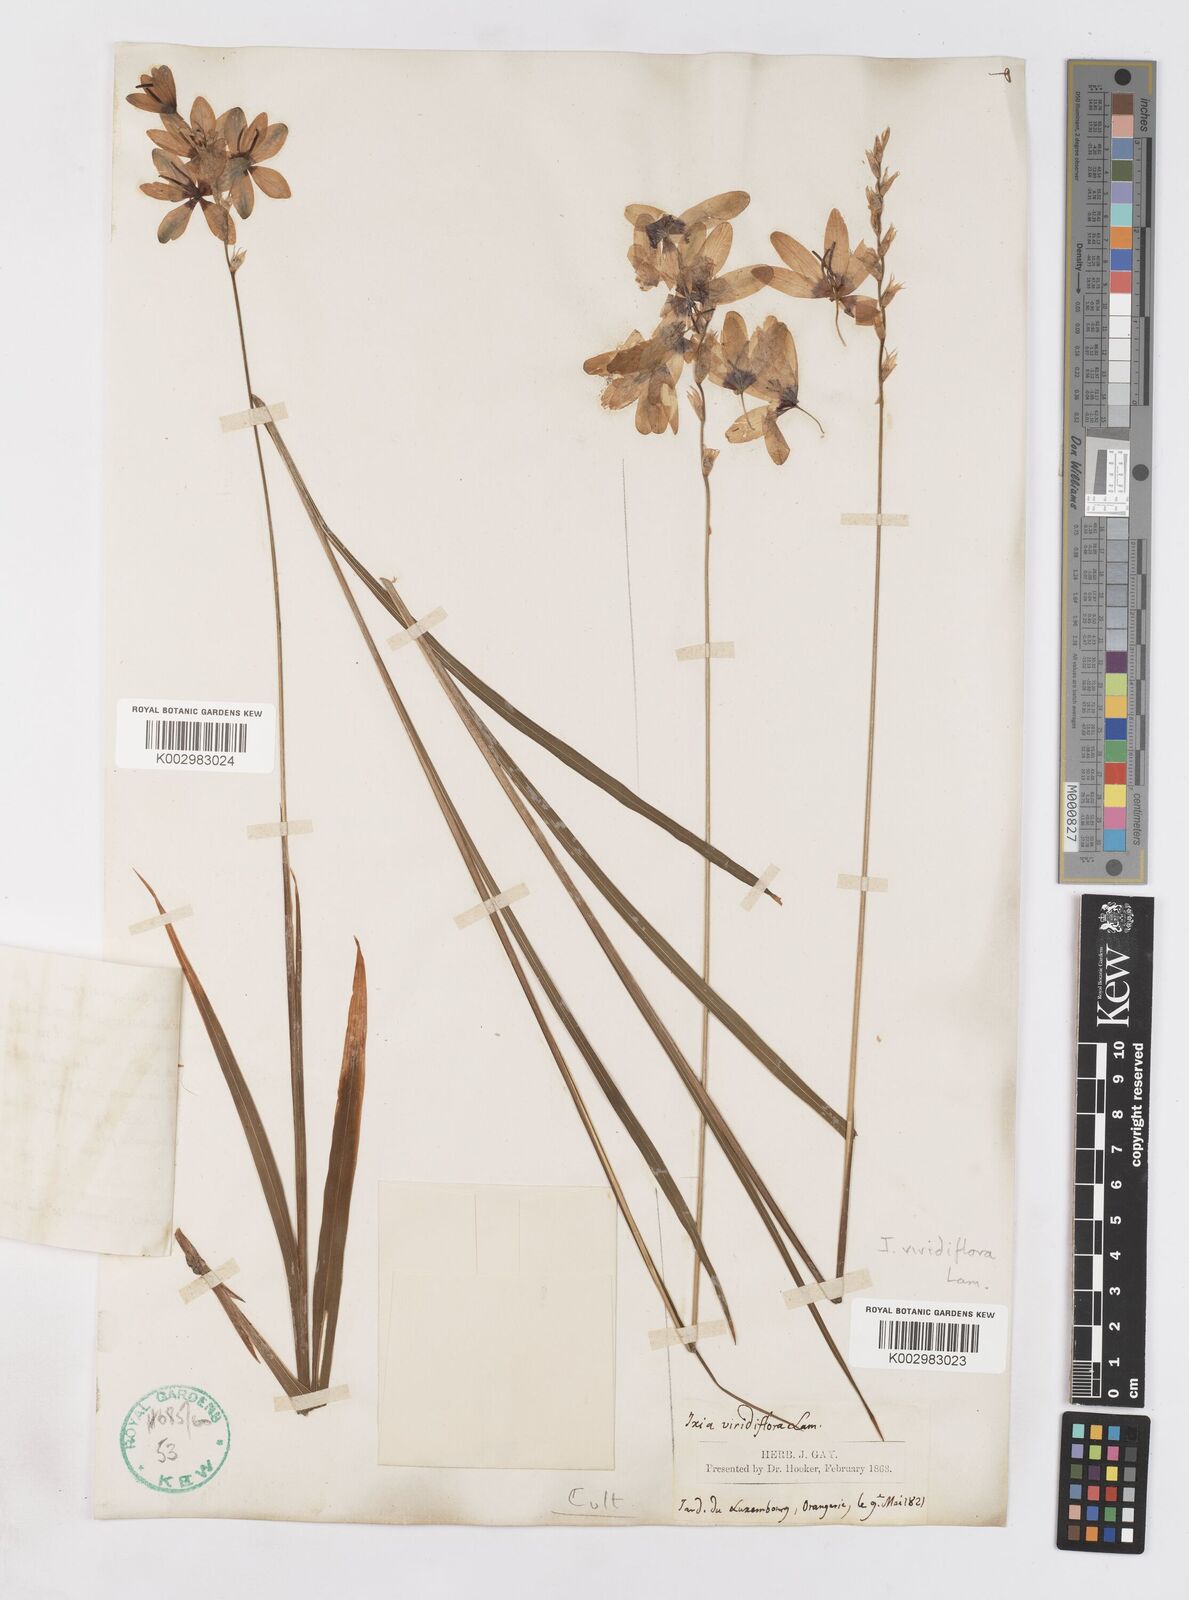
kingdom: Plantae
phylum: Tracheophyta
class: Liliopsida
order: Asparagales
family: Iridaceae
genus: Ixia
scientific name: Ixia viridiflora
